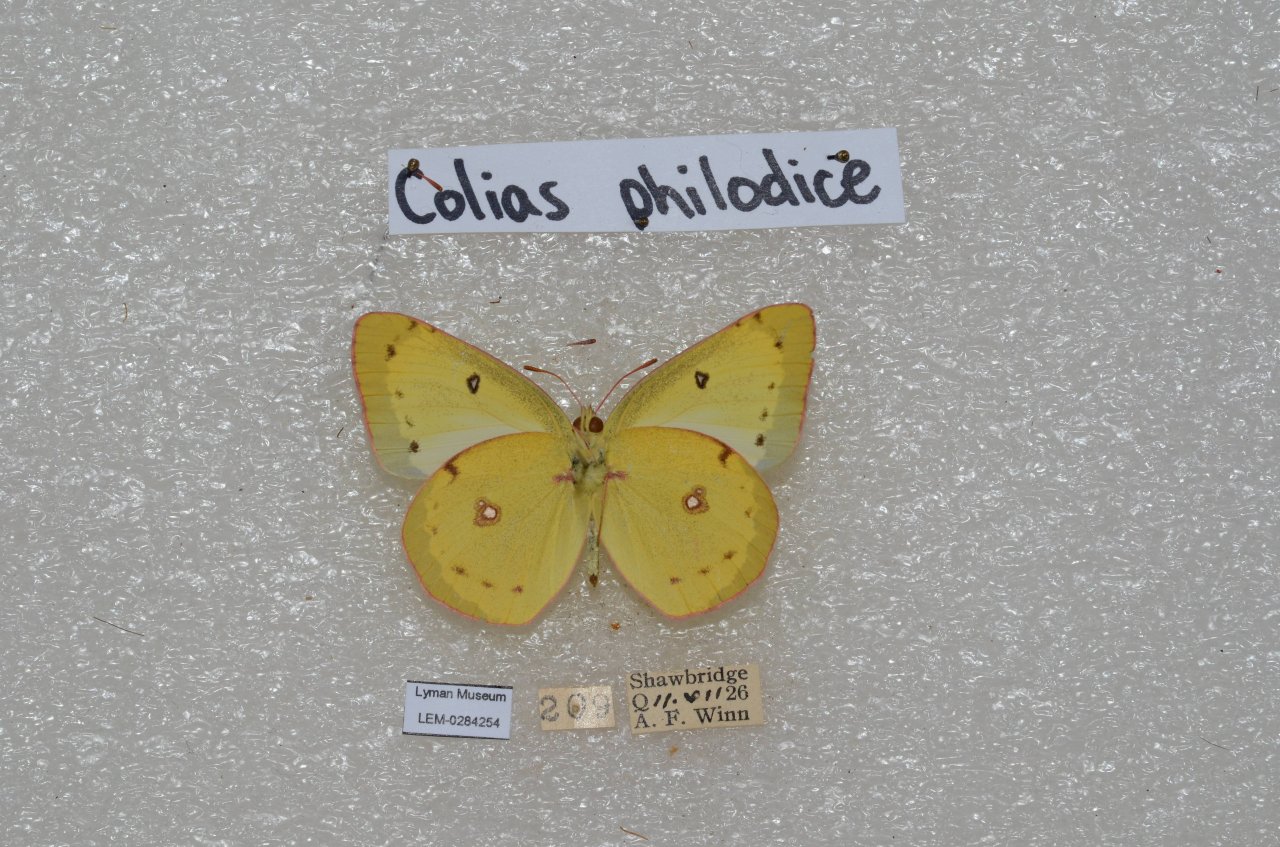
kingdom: Animalia
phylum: Arthropoda
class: Insecta
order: Lepidoptera
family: Pieridae
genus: Colias
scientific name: Colias philodice
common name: Clouded Sulphur
